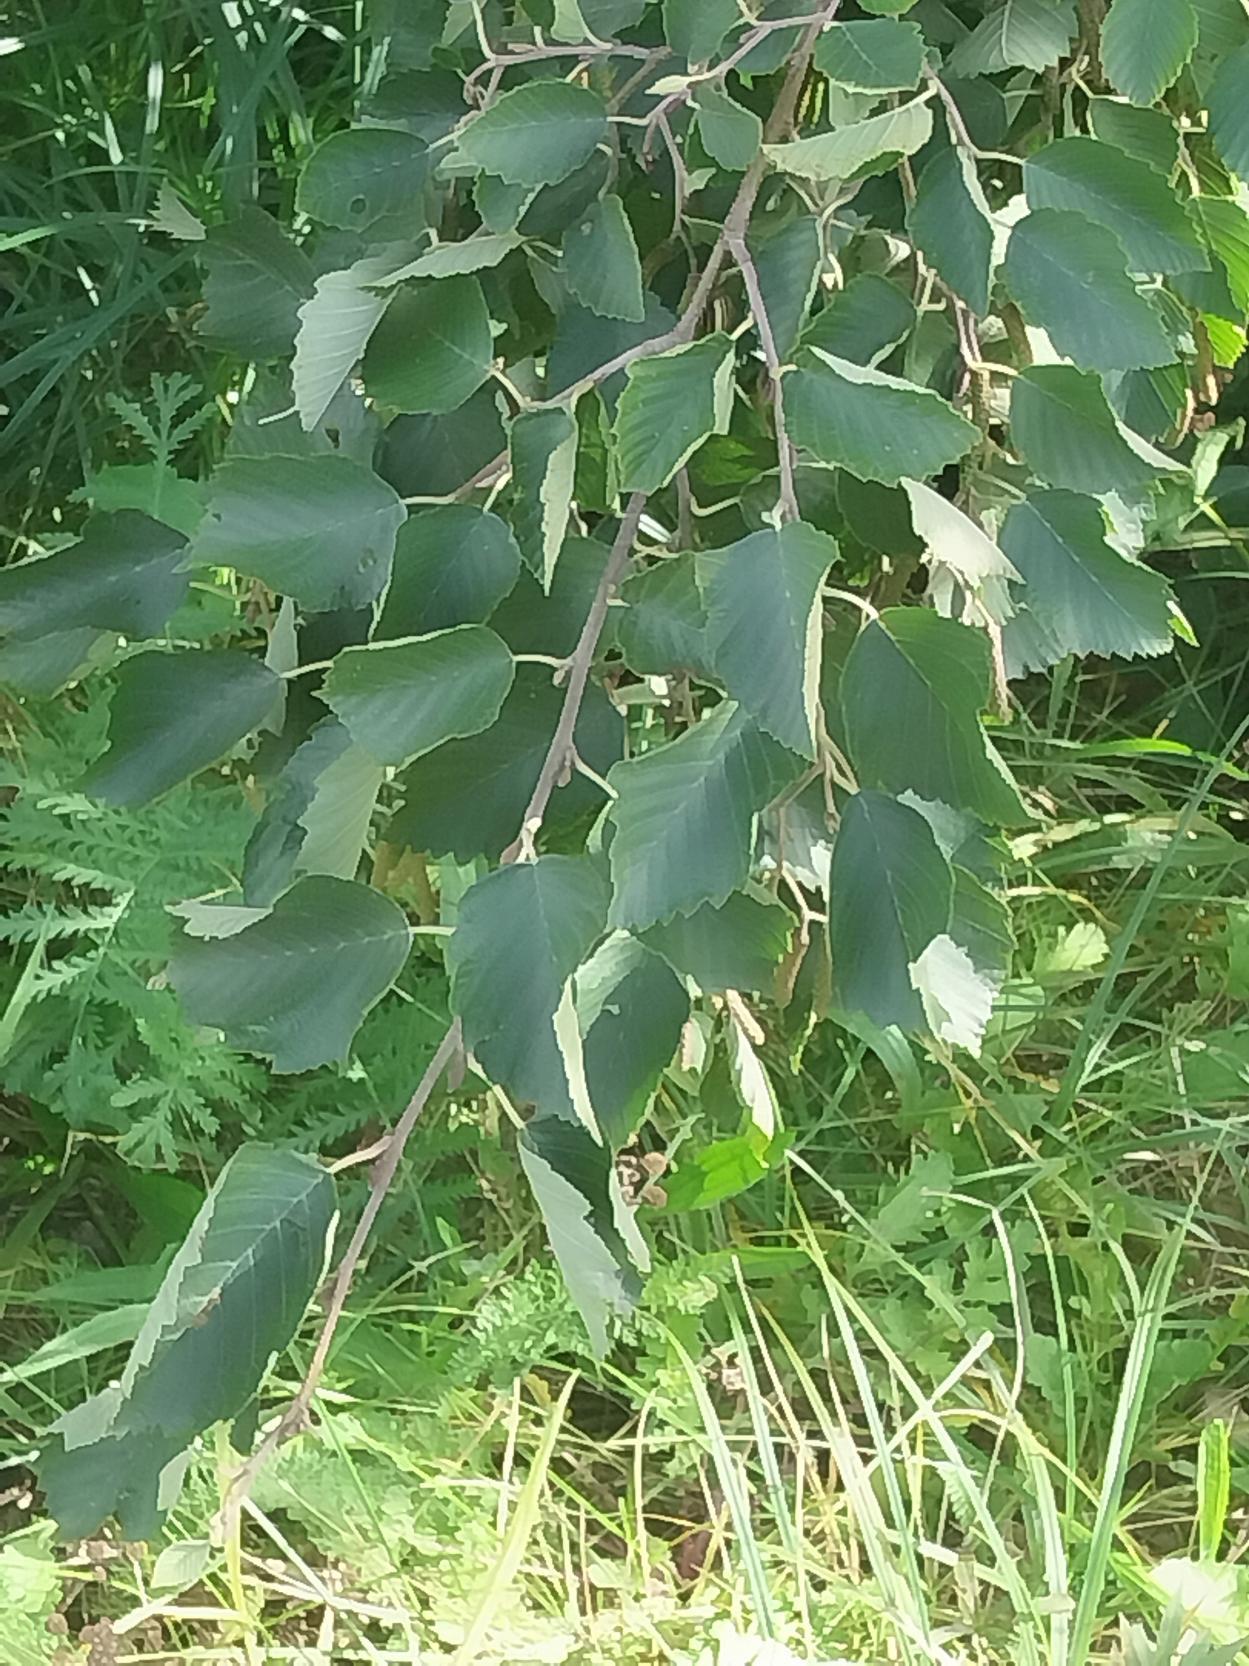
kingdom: Plantae
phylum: Tracheophyta
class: Magnoliopsida
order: Fagales
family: Betulaceae
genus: Alnus
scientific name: Alnus incana
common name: Grå-el/hvid-el
